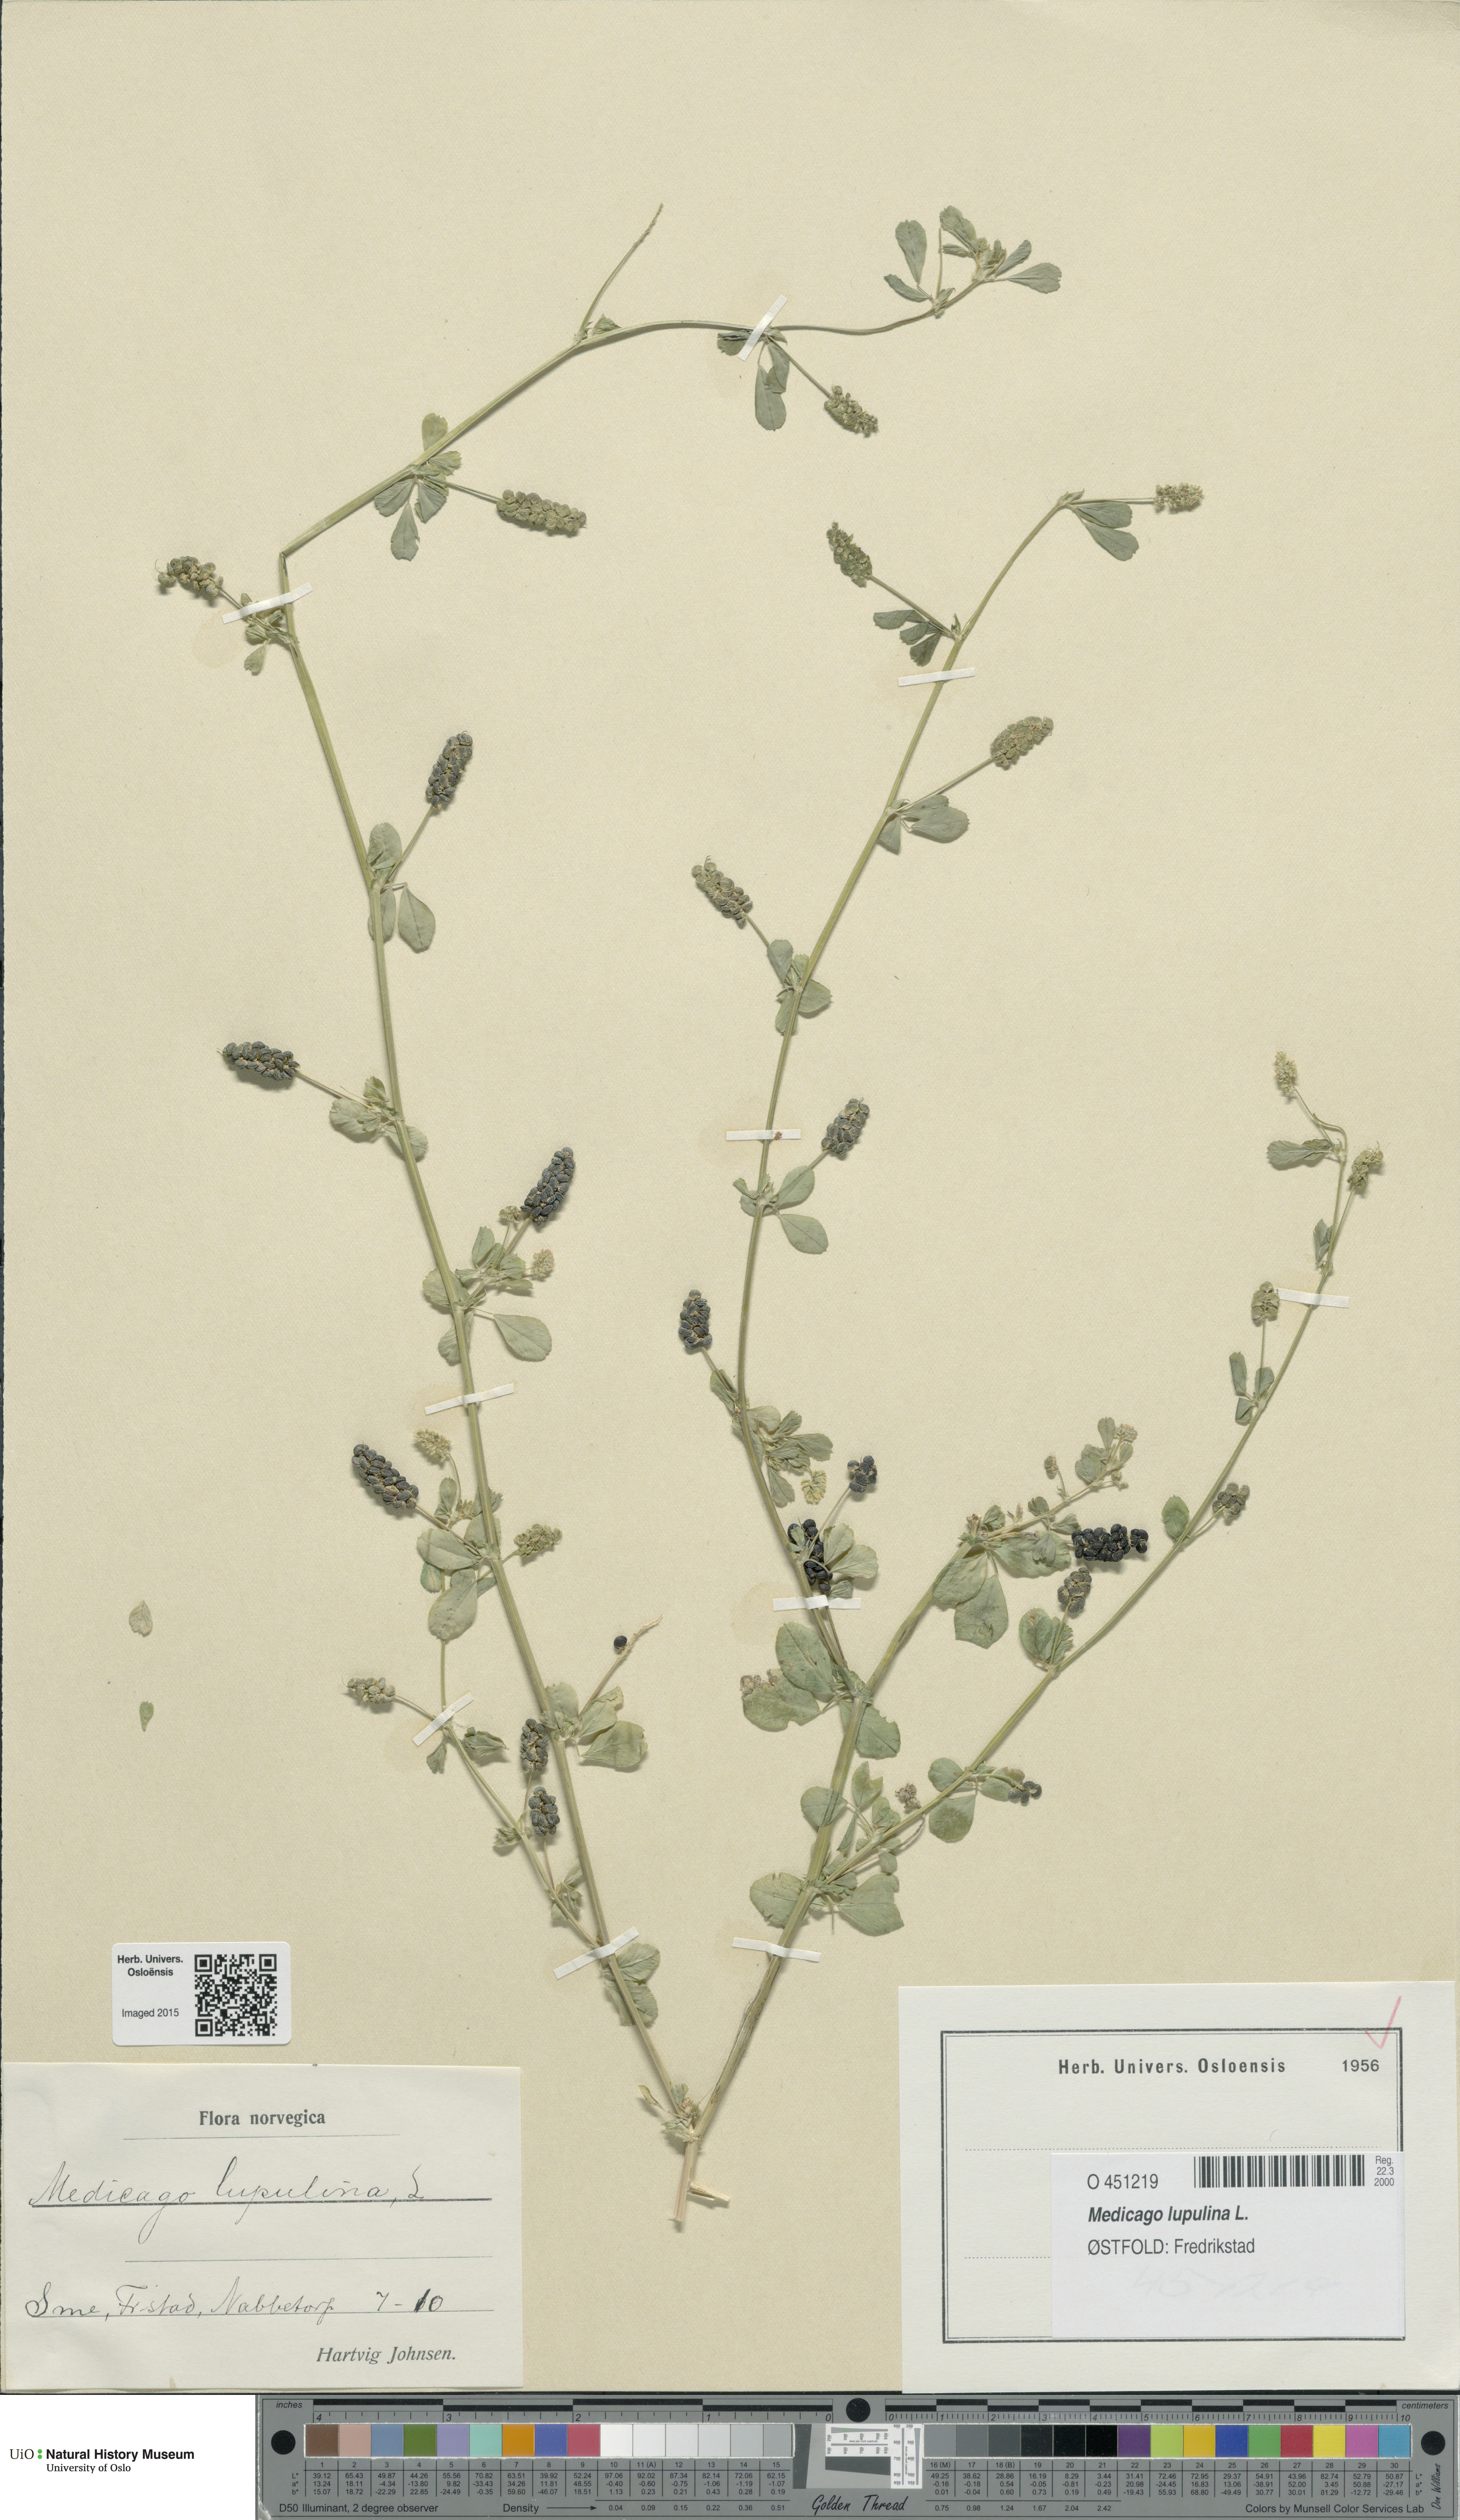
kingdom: Plantae
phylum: Tracheophyta
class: Magnoliopsida
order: Fabales
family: Fabaceae
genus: Medicago
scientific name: Medicago lupulina
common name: Black medick
